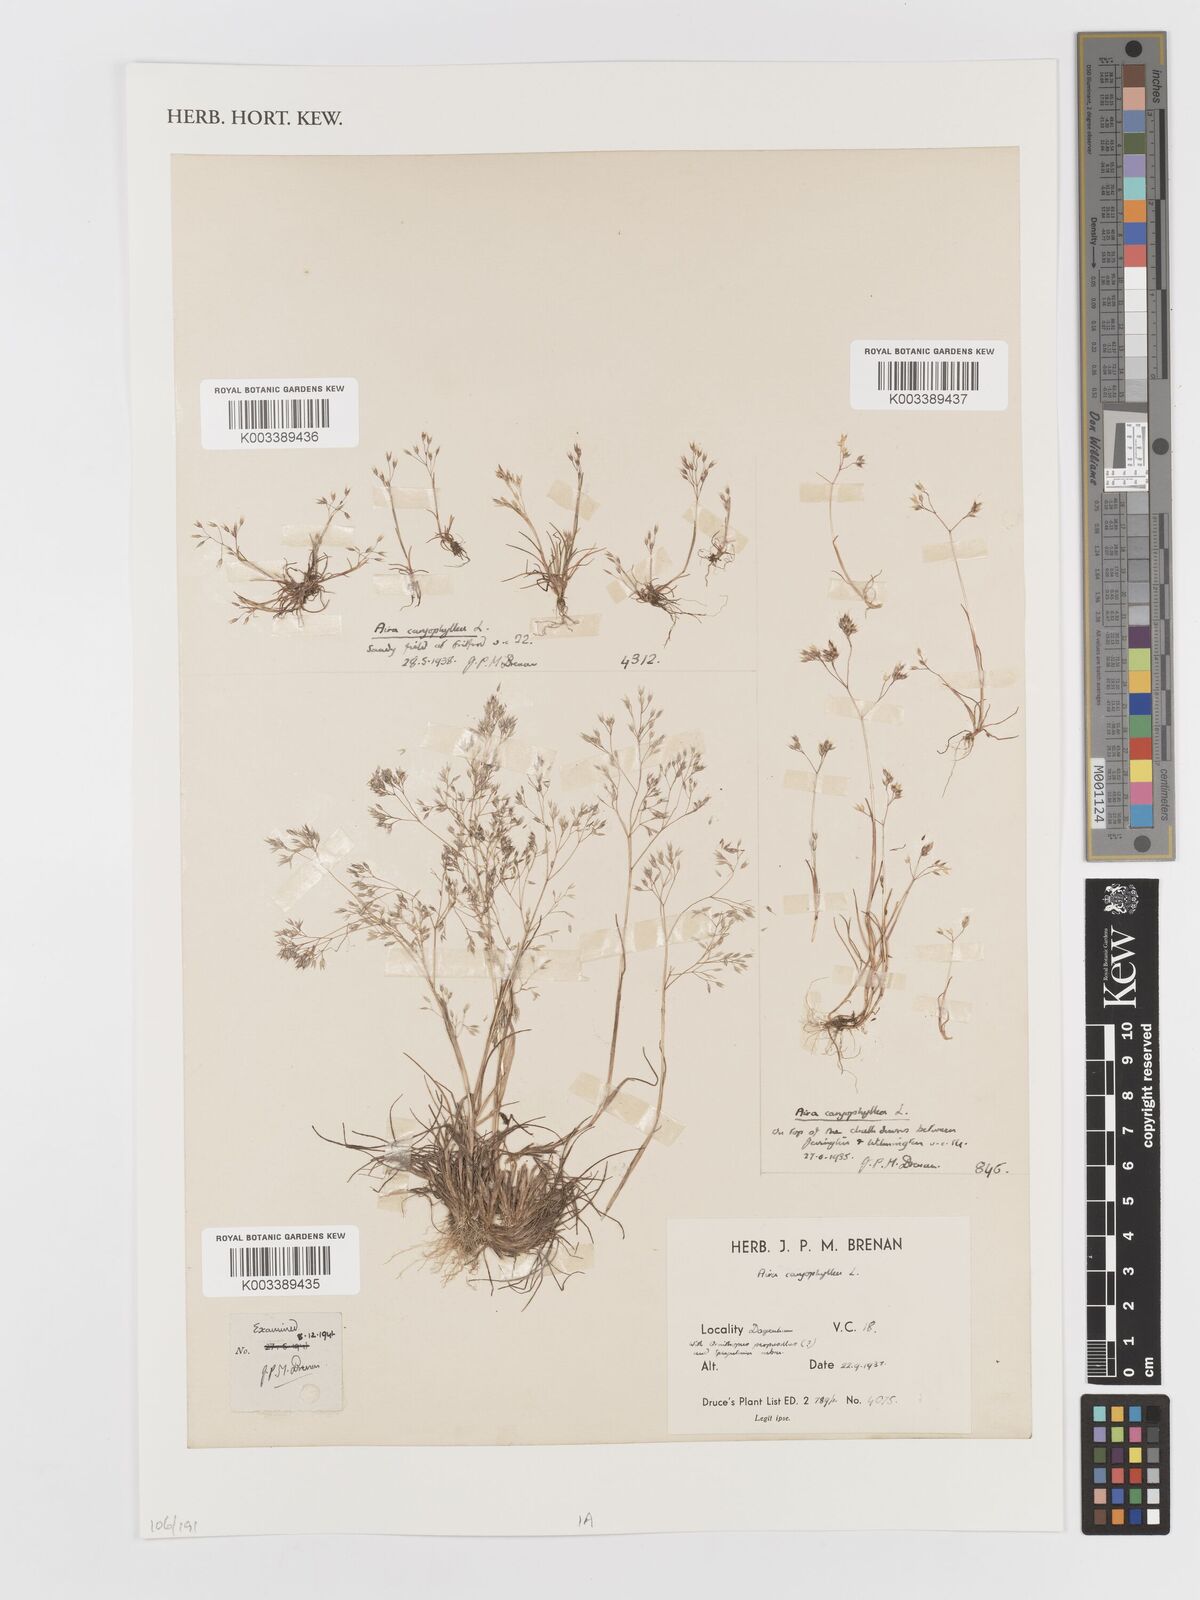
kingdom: Plantae
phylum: Tracheophyta
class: Liliopsida
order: Poales
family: Poaceae
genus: Aira
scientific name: Aira caryophyllea
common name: Silver hairgrass
